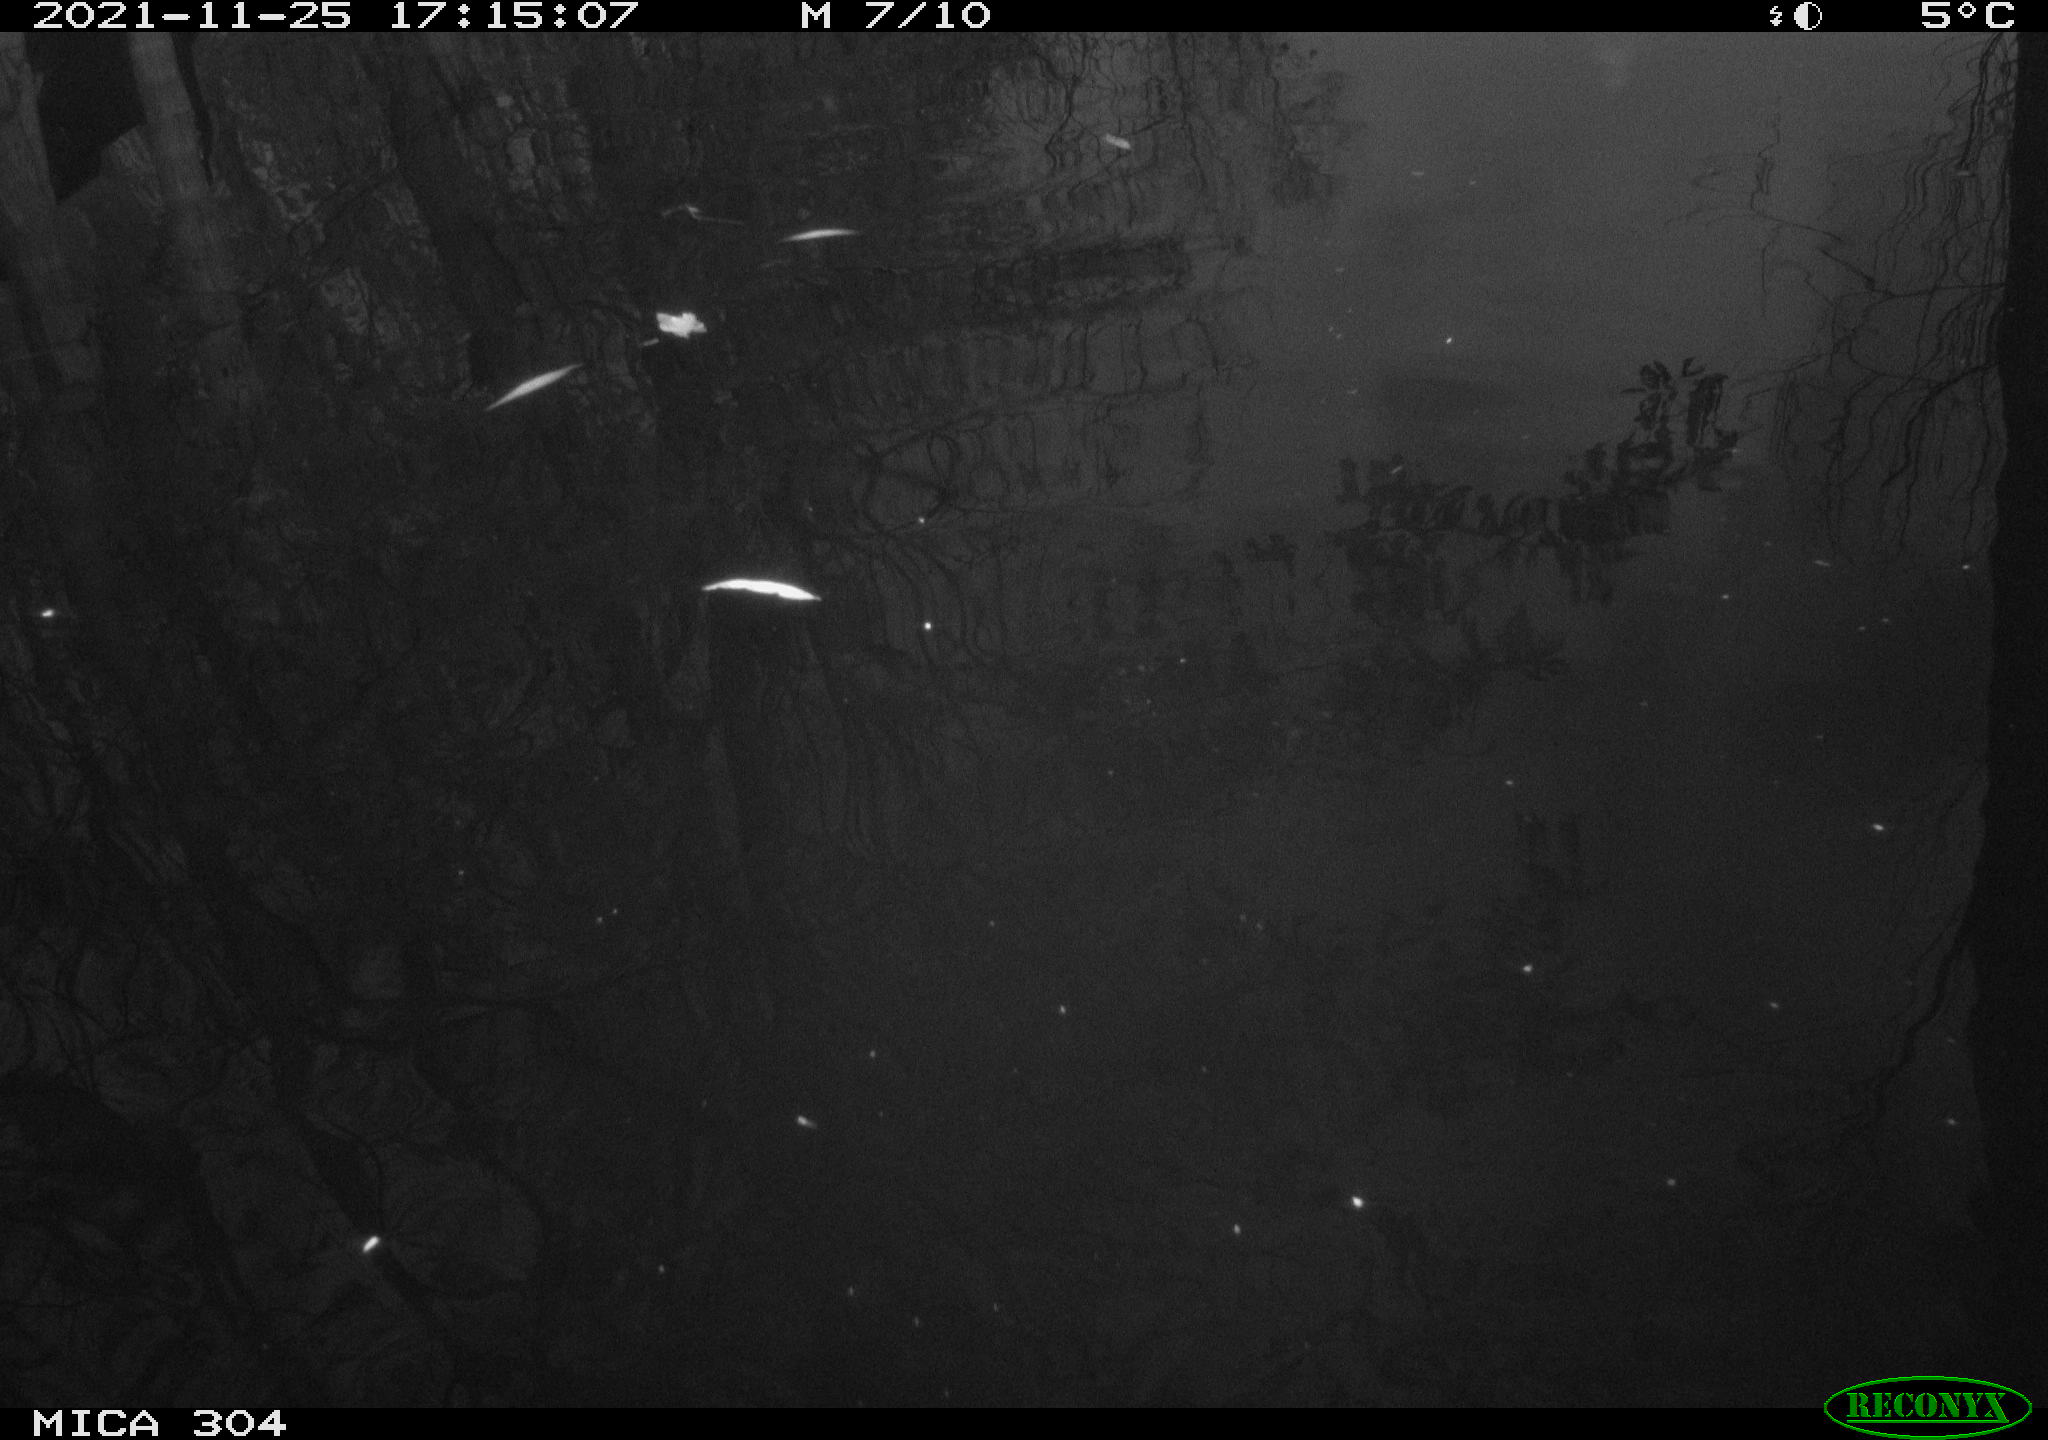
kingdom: Animalia
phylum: Chordata
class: Aves
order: Gruiformes
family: Rallidae
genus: Fulica
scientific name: Fulica atra
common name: Eurasian coot
